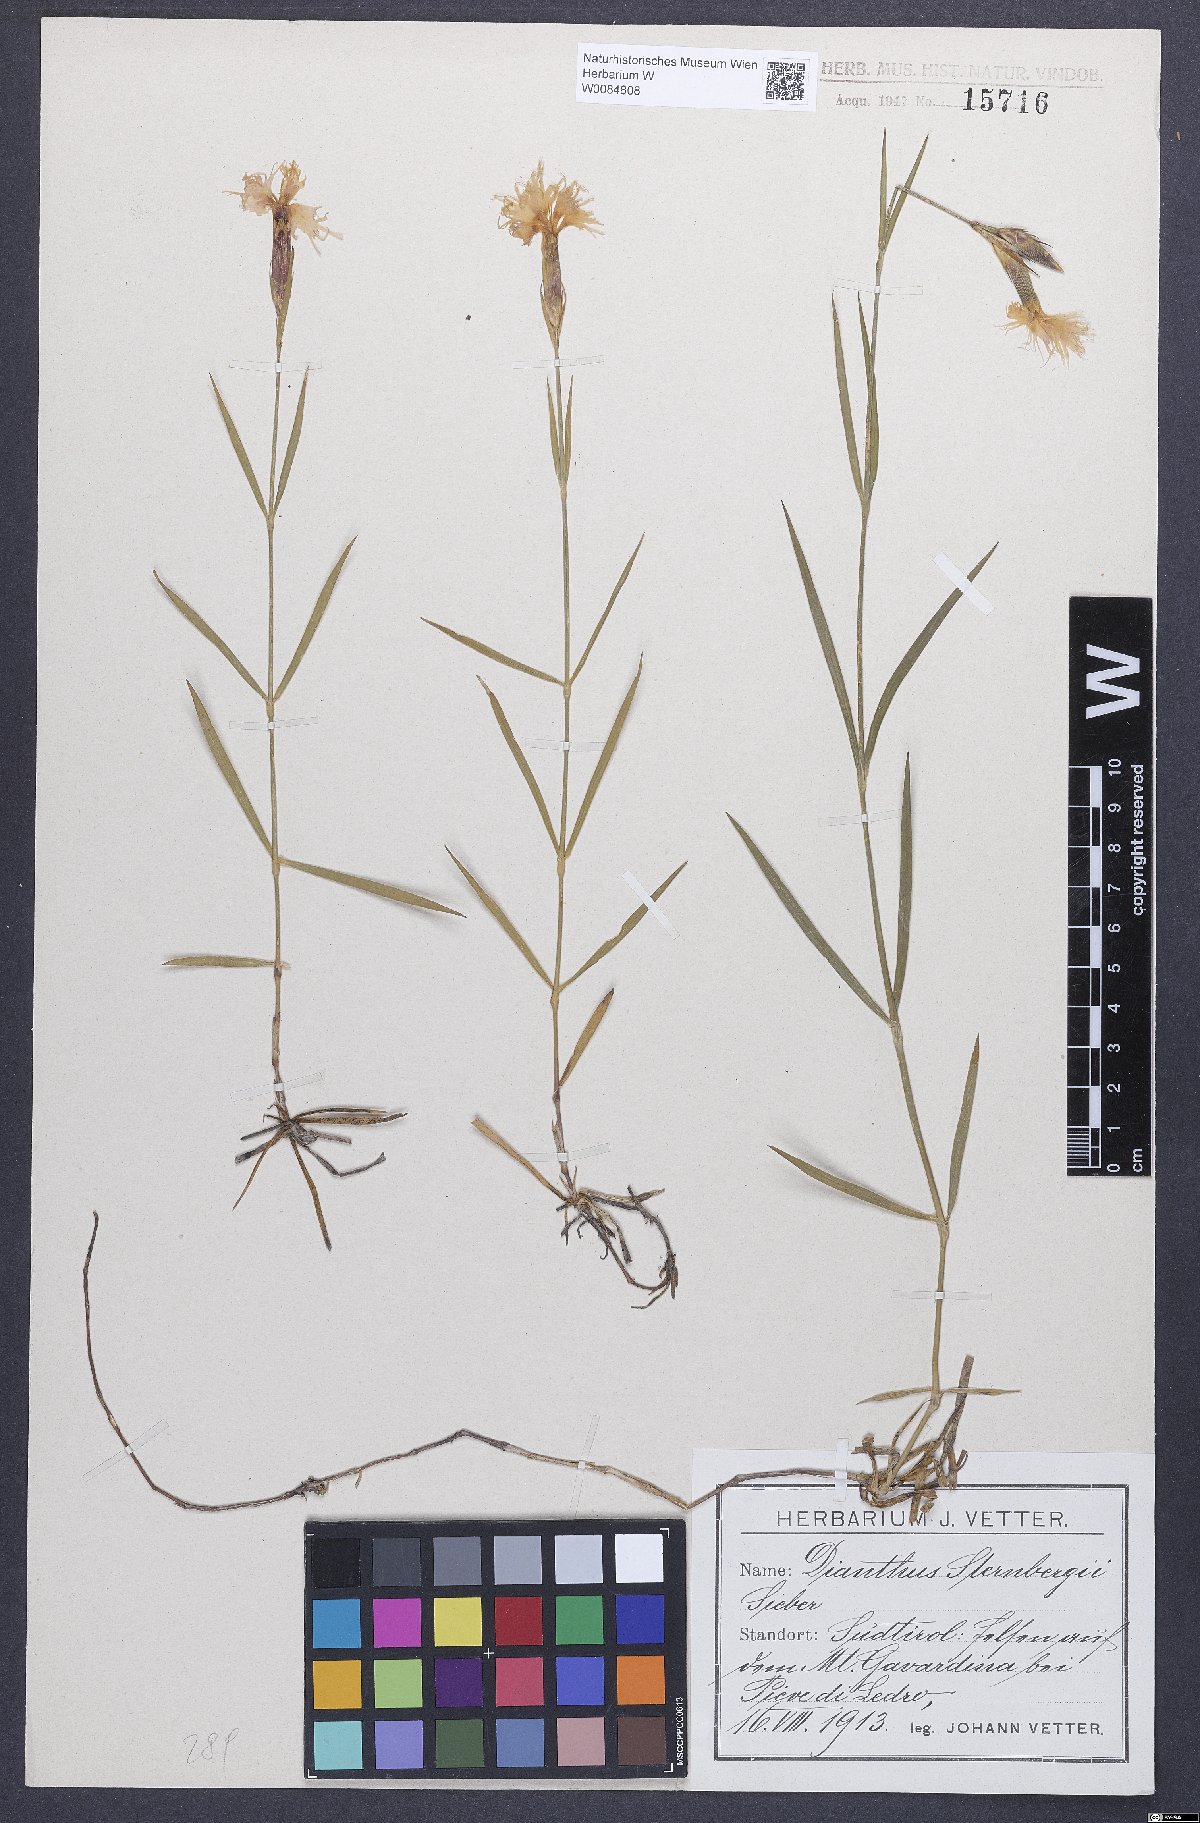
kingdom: Plantae
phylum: Tracheophyta
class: Magnoliopsida
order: Caryophyllales
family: Caryophyllaceae
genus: Dianthus
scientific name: Dianthus monspessulanus
